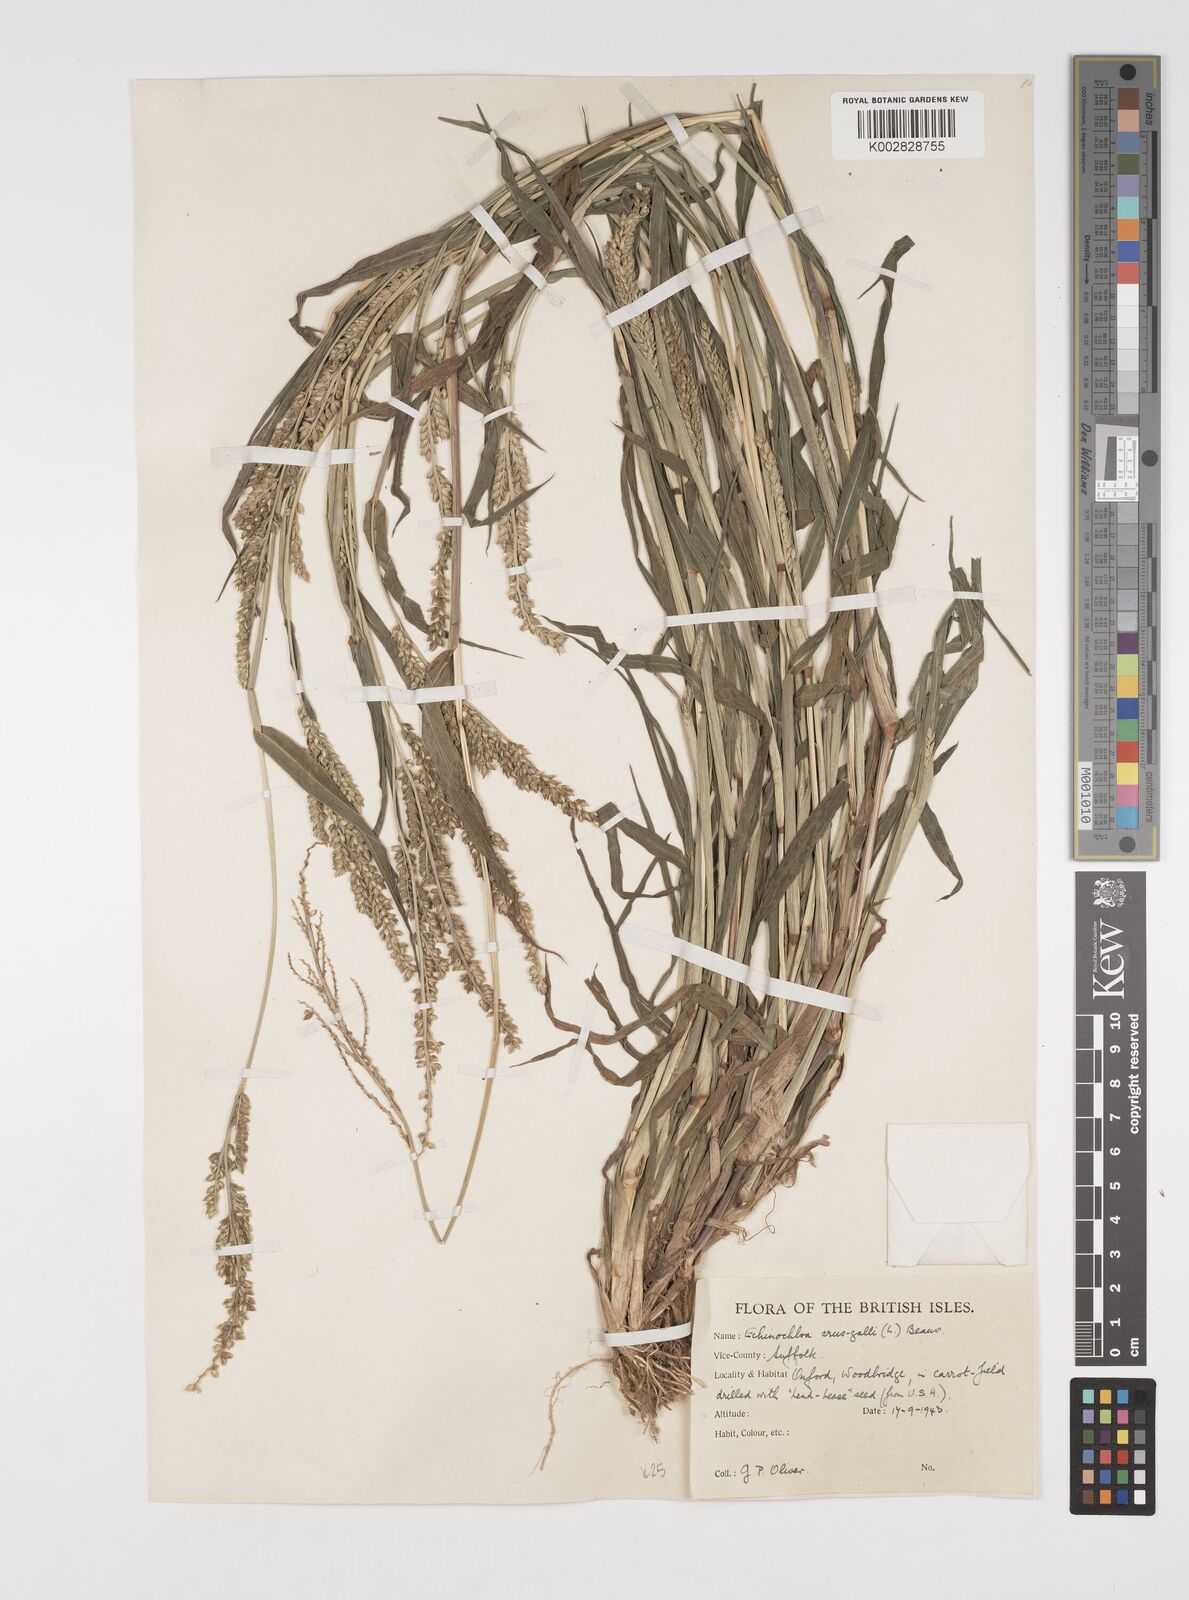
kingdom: Plantae
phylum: Tracheophyta
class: Liliopsida
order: Poales
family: Poaceae
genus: Echinochloa
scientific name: Echinochloa crus-galli
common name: Cockspur
